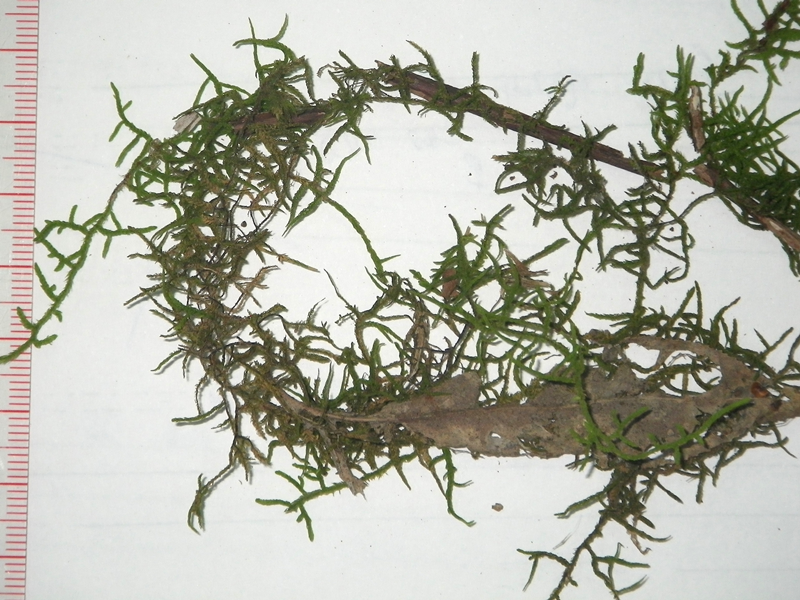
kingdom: Plantae
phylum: Bryophyta
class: Bryopsida
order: Hypnales
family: Meteoriaceae
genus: Cryptopapillaria
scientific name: Cryptopapillaria feae
